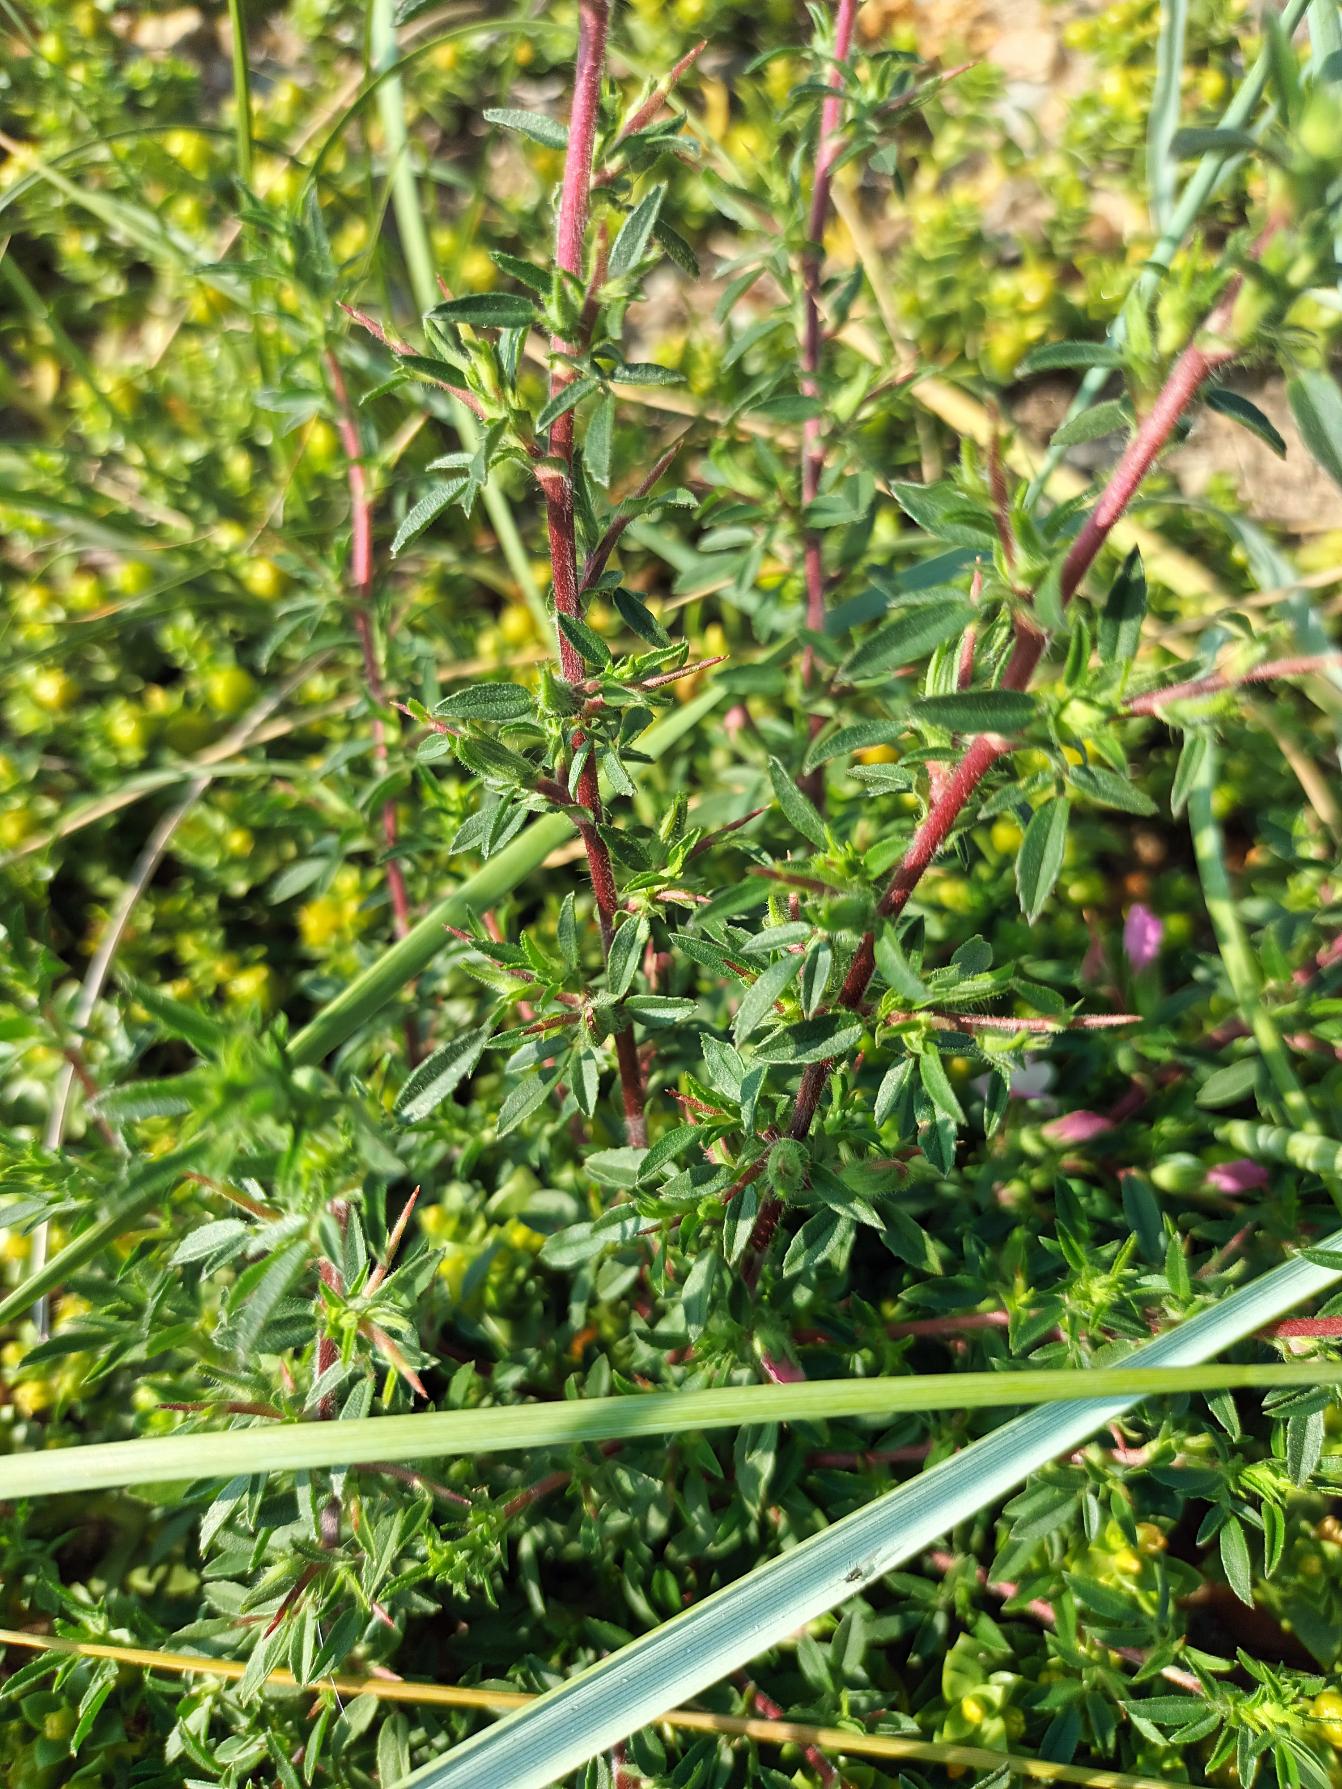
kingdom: Plantae
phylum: Tracheophyta
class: Magnoliopsida
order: Fabales
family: Fabaceae
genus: Ononis
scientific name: Ononis spinosa
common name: Strand-krageklo
